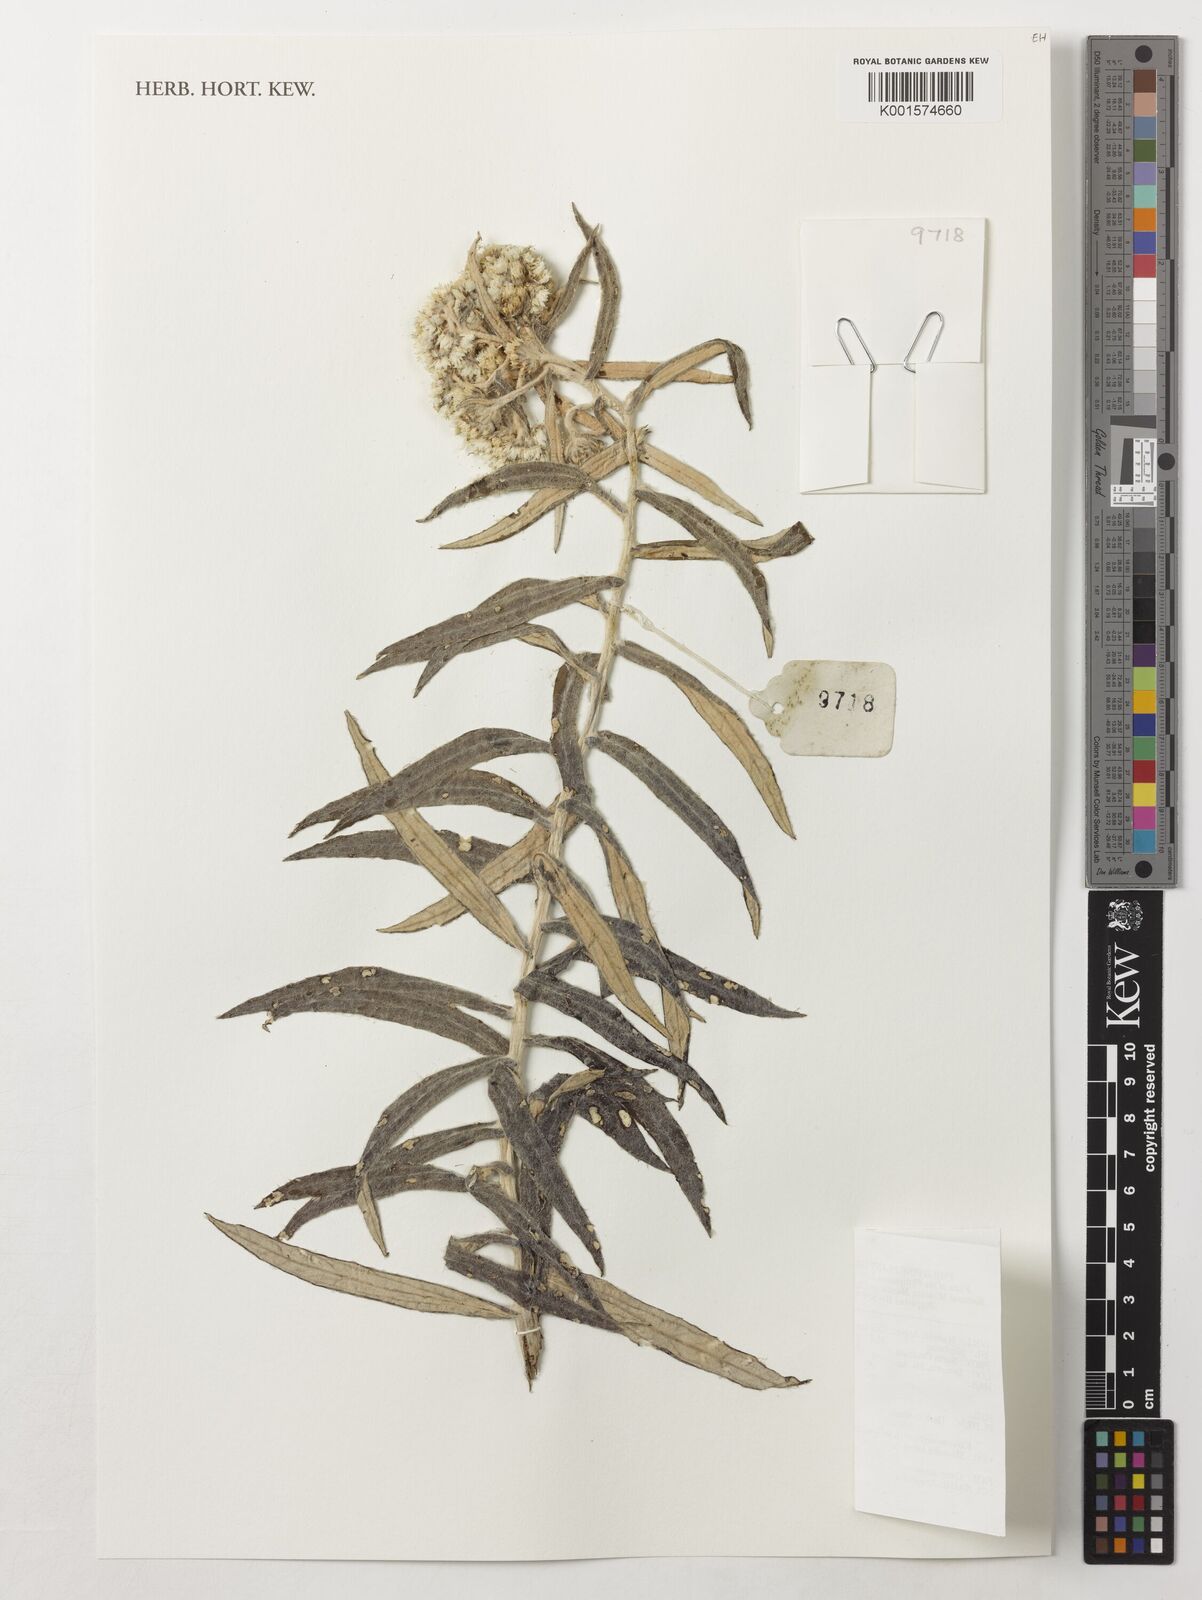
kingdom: Plantae
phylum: Tracheophyta
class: Magnoliopsida
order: Asterales
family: Asteraceae
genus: Anaphalis
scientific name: Anaphalis
